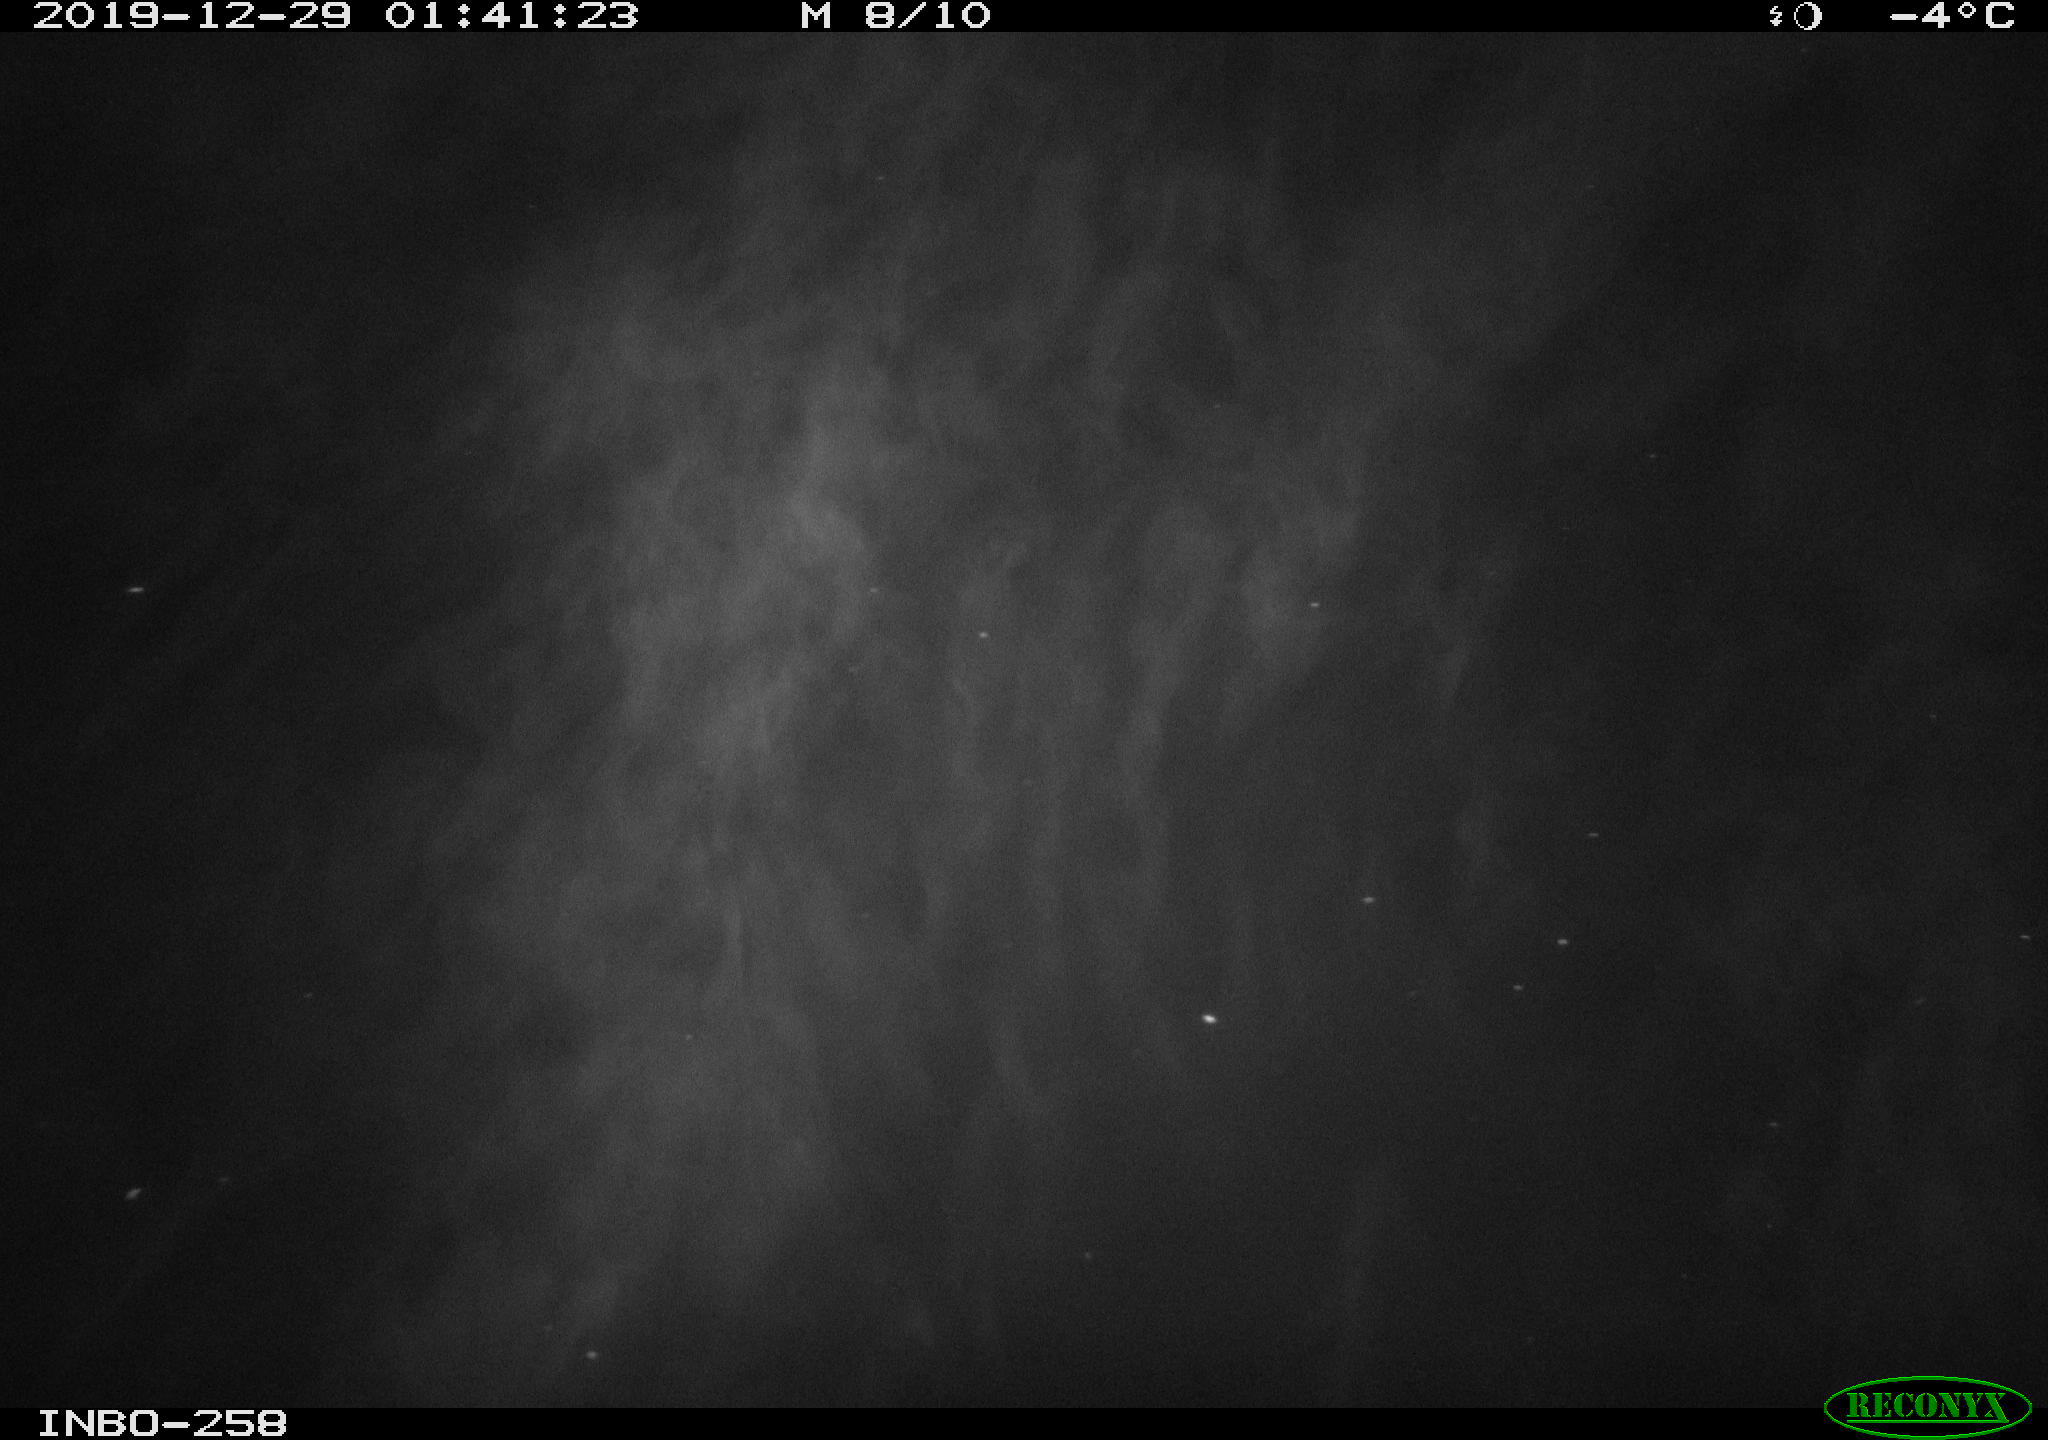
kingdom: Animalia
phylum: Chordata
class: Mammalia
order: Rodentia
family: Muridae
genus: Rattus
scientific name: Rattus norvegicus
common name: Brown rat
